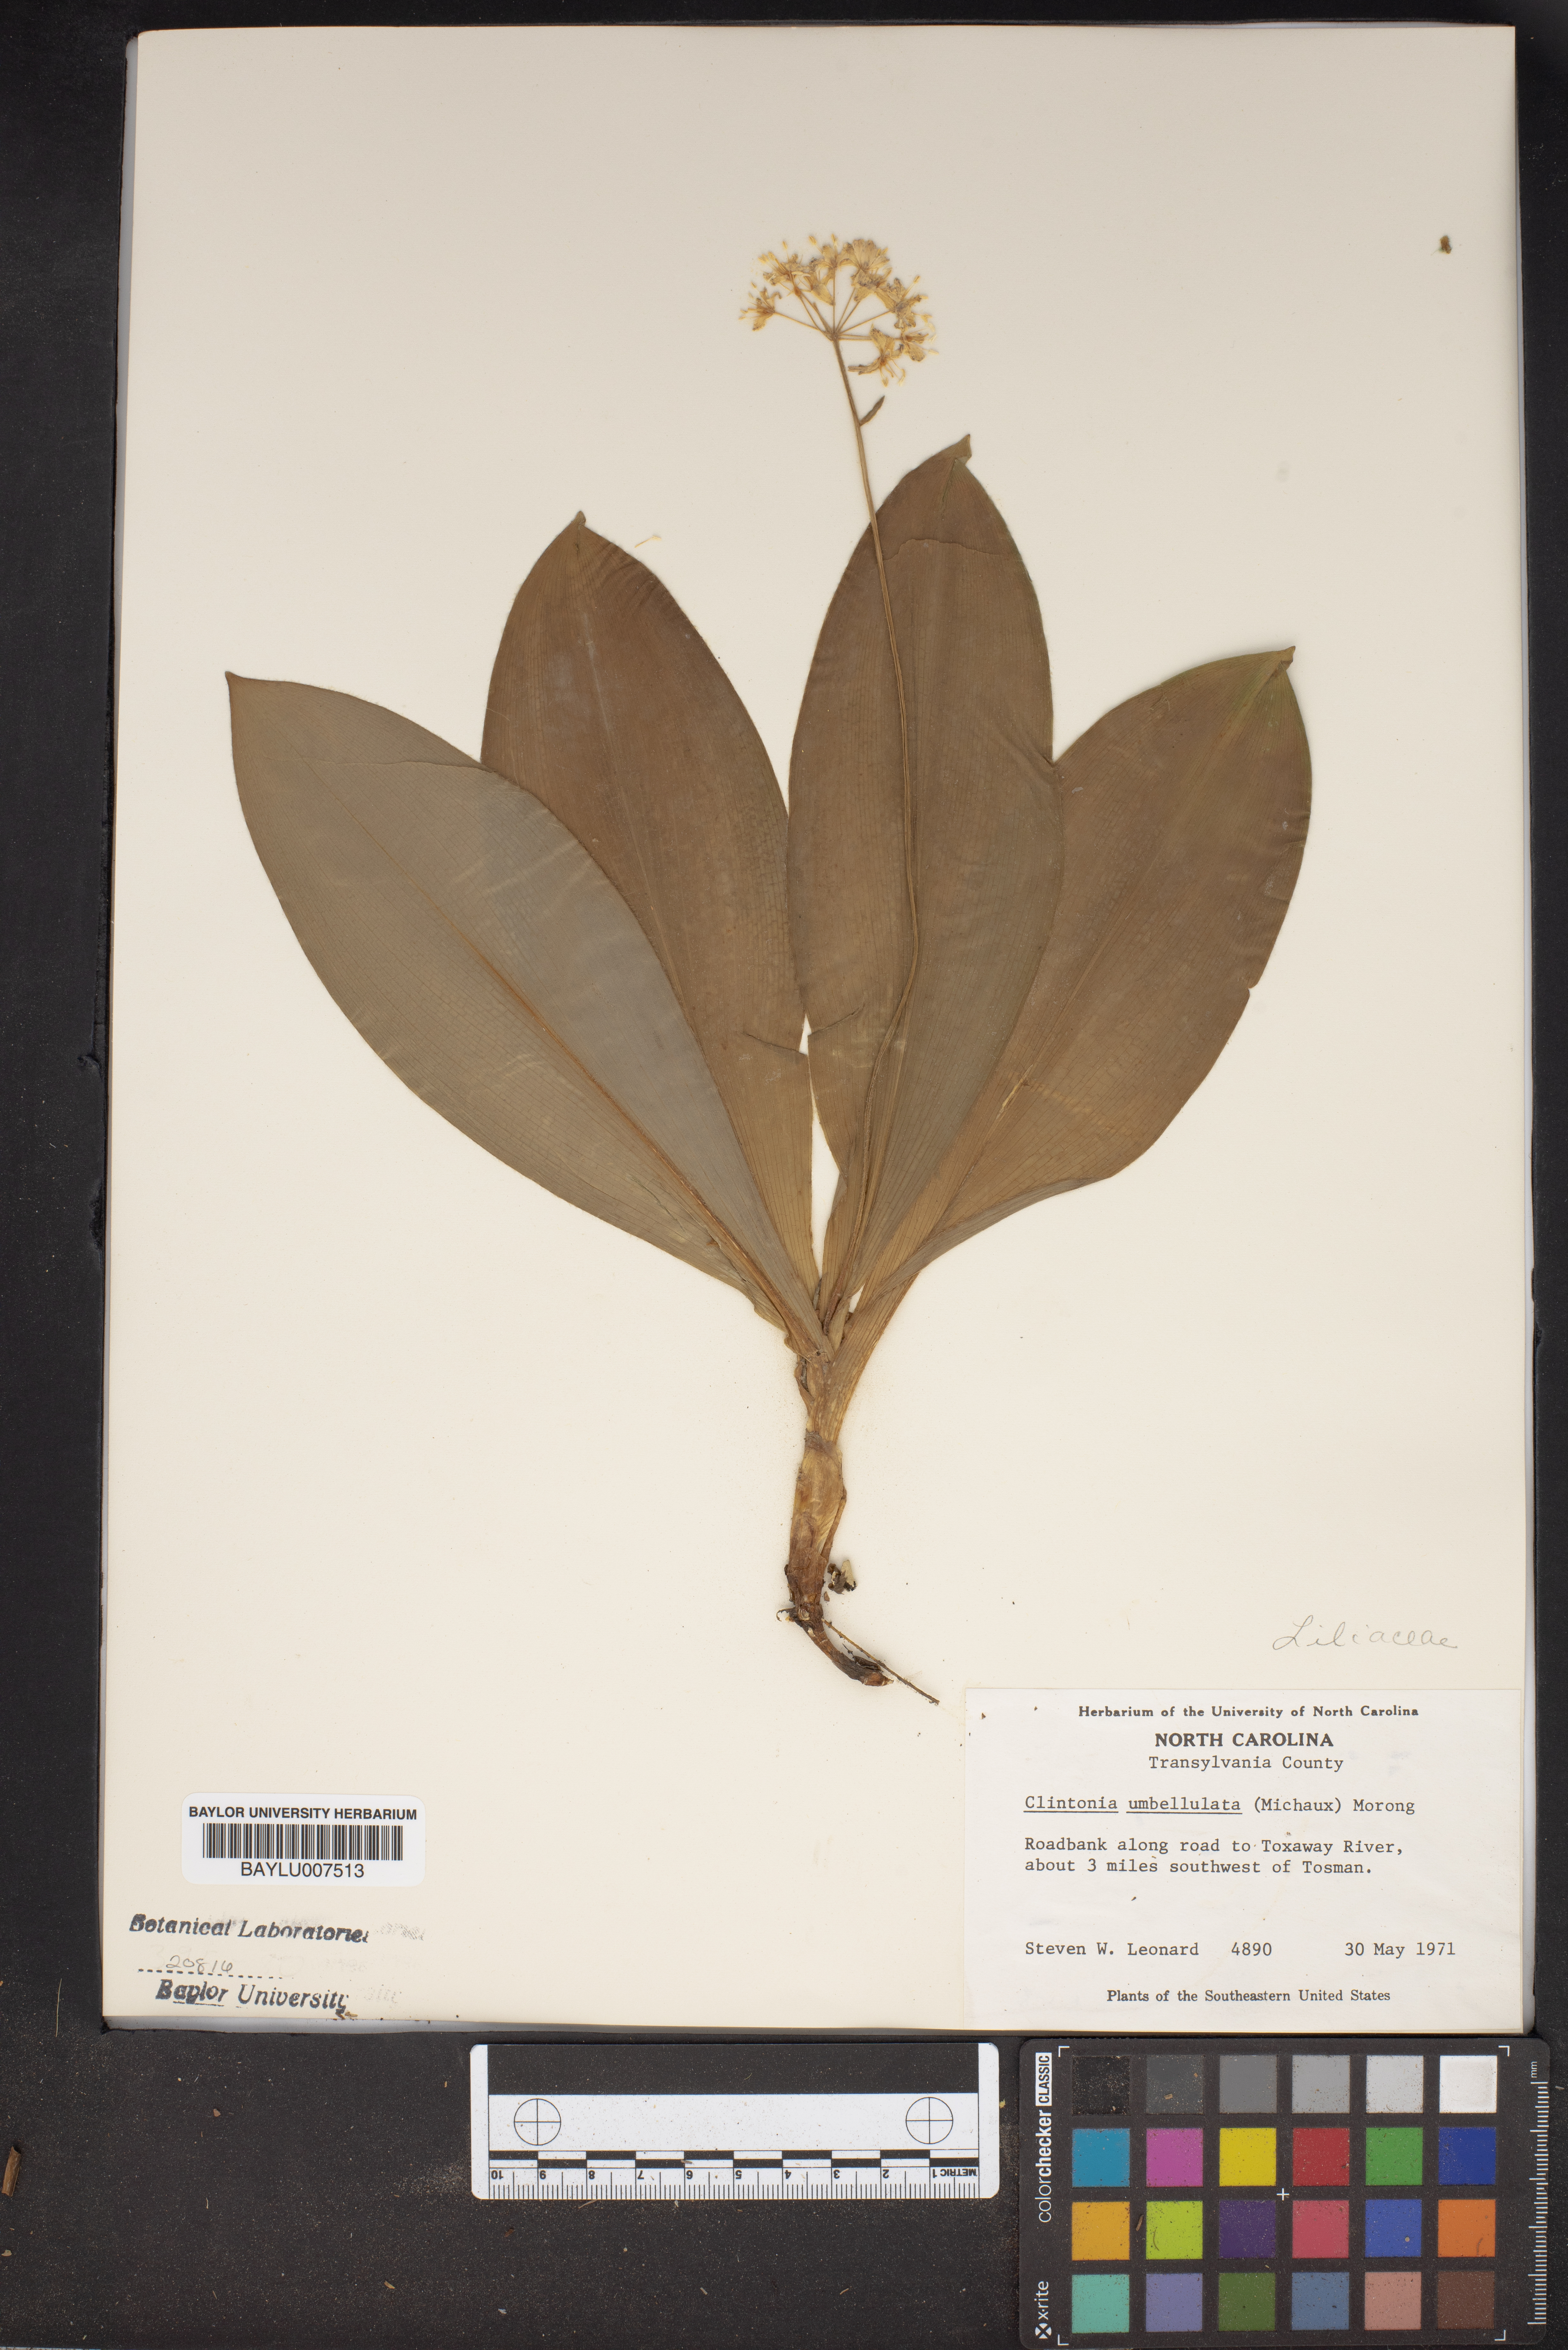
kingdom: Plantae
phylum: Tracheophyta
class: Liliopsida
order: Liliales
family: Liliaceae
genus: Clintonia
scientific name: Clintonia umbellulata
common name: Speckle wood-lily
